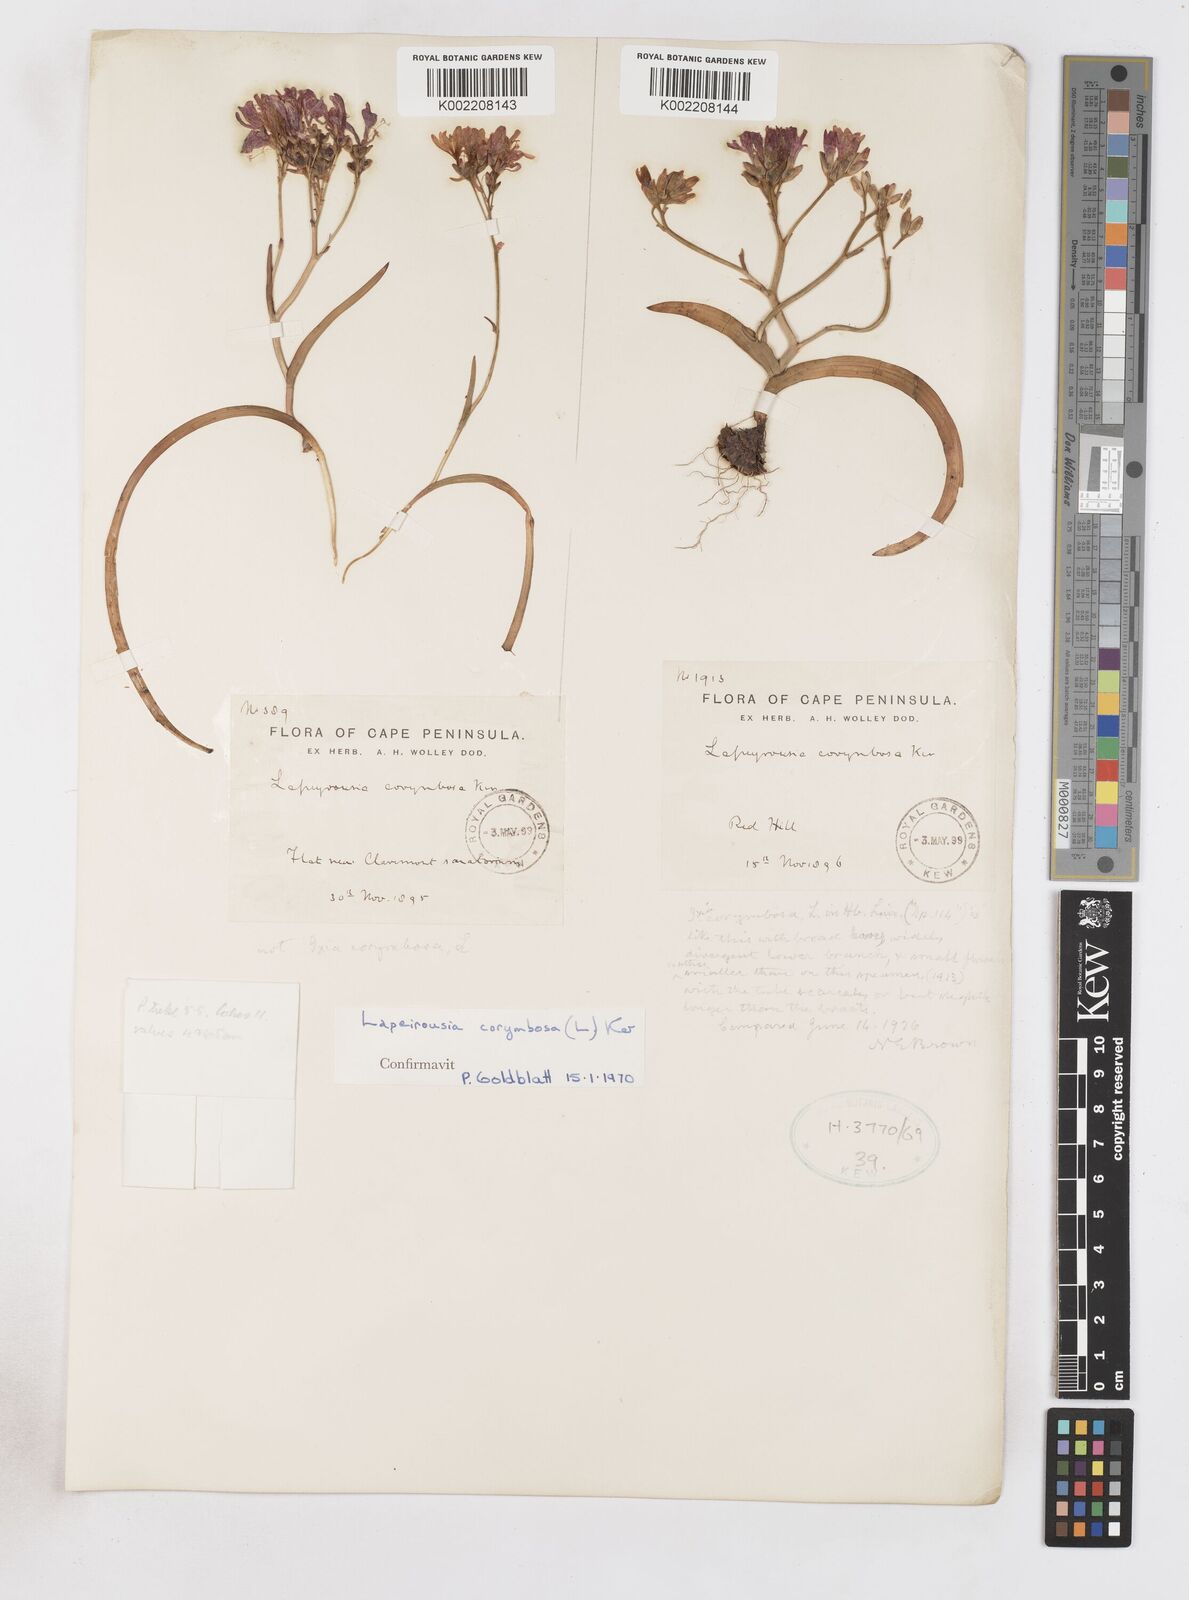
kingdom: Plantae
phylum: Tracheophyta
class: Liliopsida
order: Asparagales
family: Iridaceae
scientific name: Iridaceae
